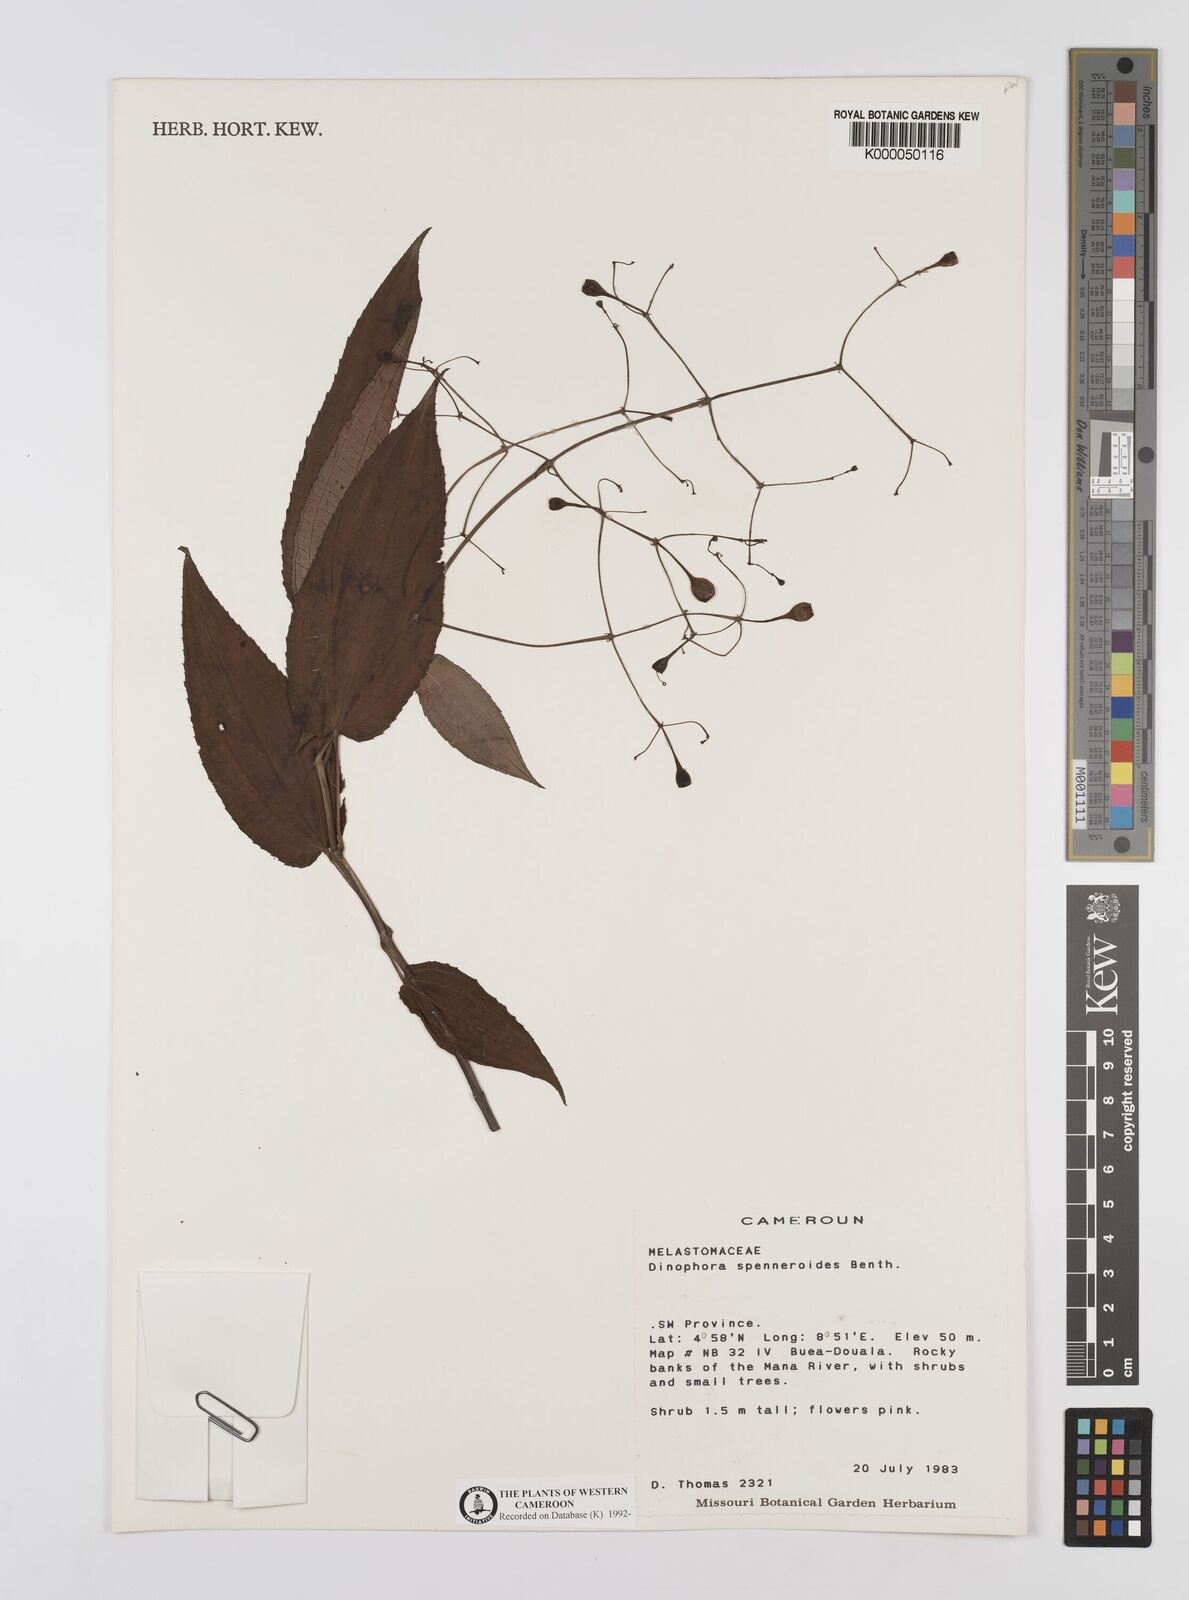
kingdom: Plantae
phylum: Tracheophyta
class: Magnoliopsida
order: Myrtales
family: Melastomataceae
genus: Dinophora
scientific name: Dinophora spenneroides
